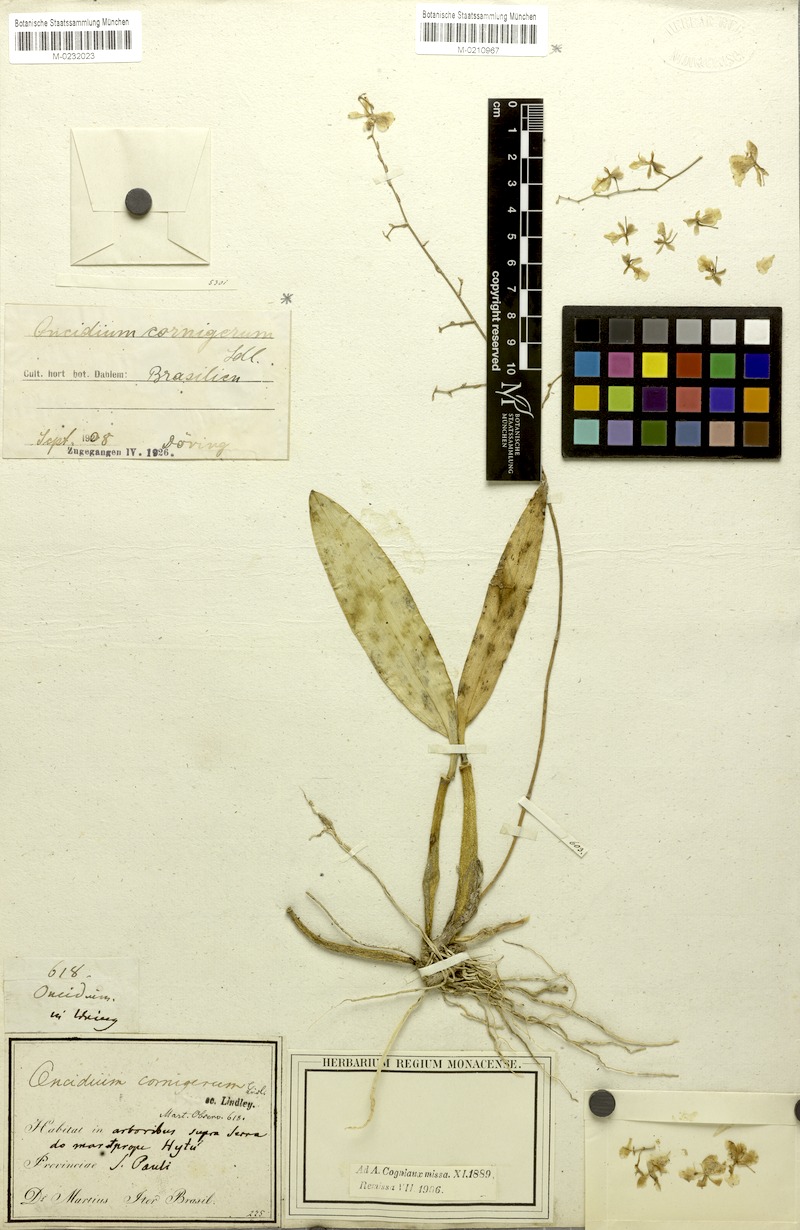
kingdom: Plantae
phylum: Tracheophyta
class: Liliopsida
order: Asparagales
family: Orchidaceae
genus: Gomesa
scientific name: Gomesa cornigera
